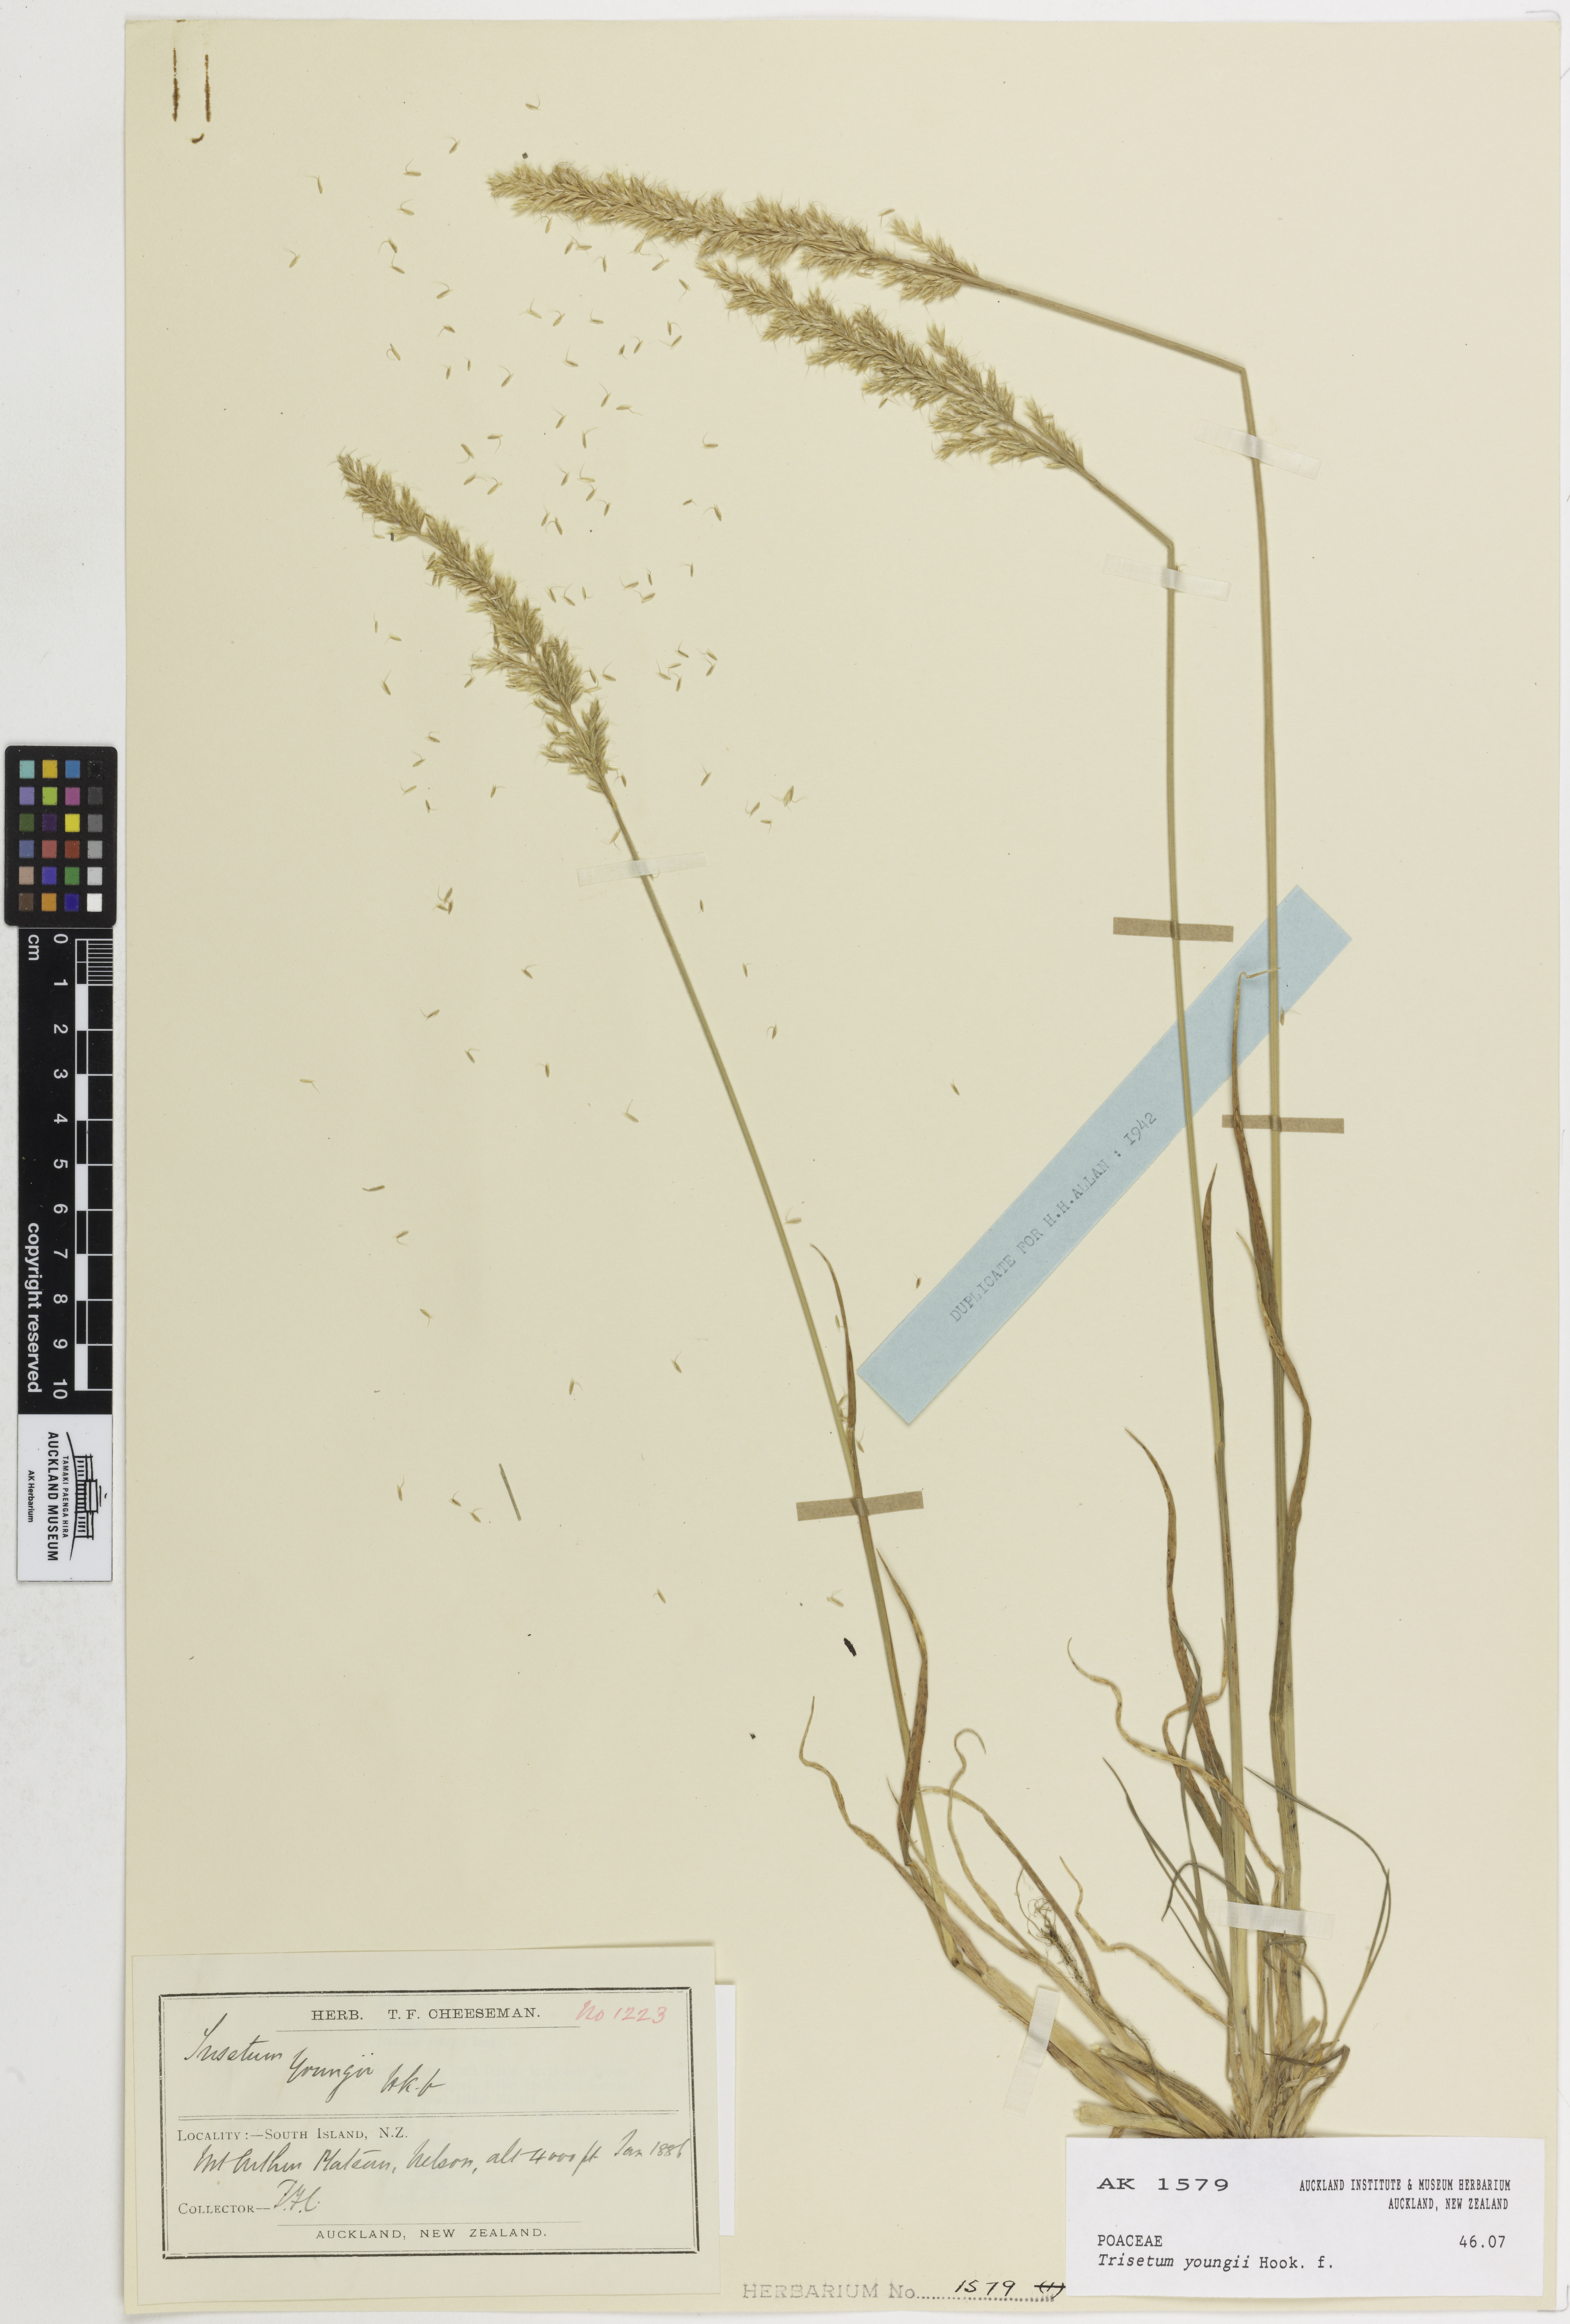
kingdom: Plantae
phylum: Tracheophyta
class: Liliopsida
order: Poales
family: Poaceae
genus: Koeleria
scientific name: Koeleria youngii
